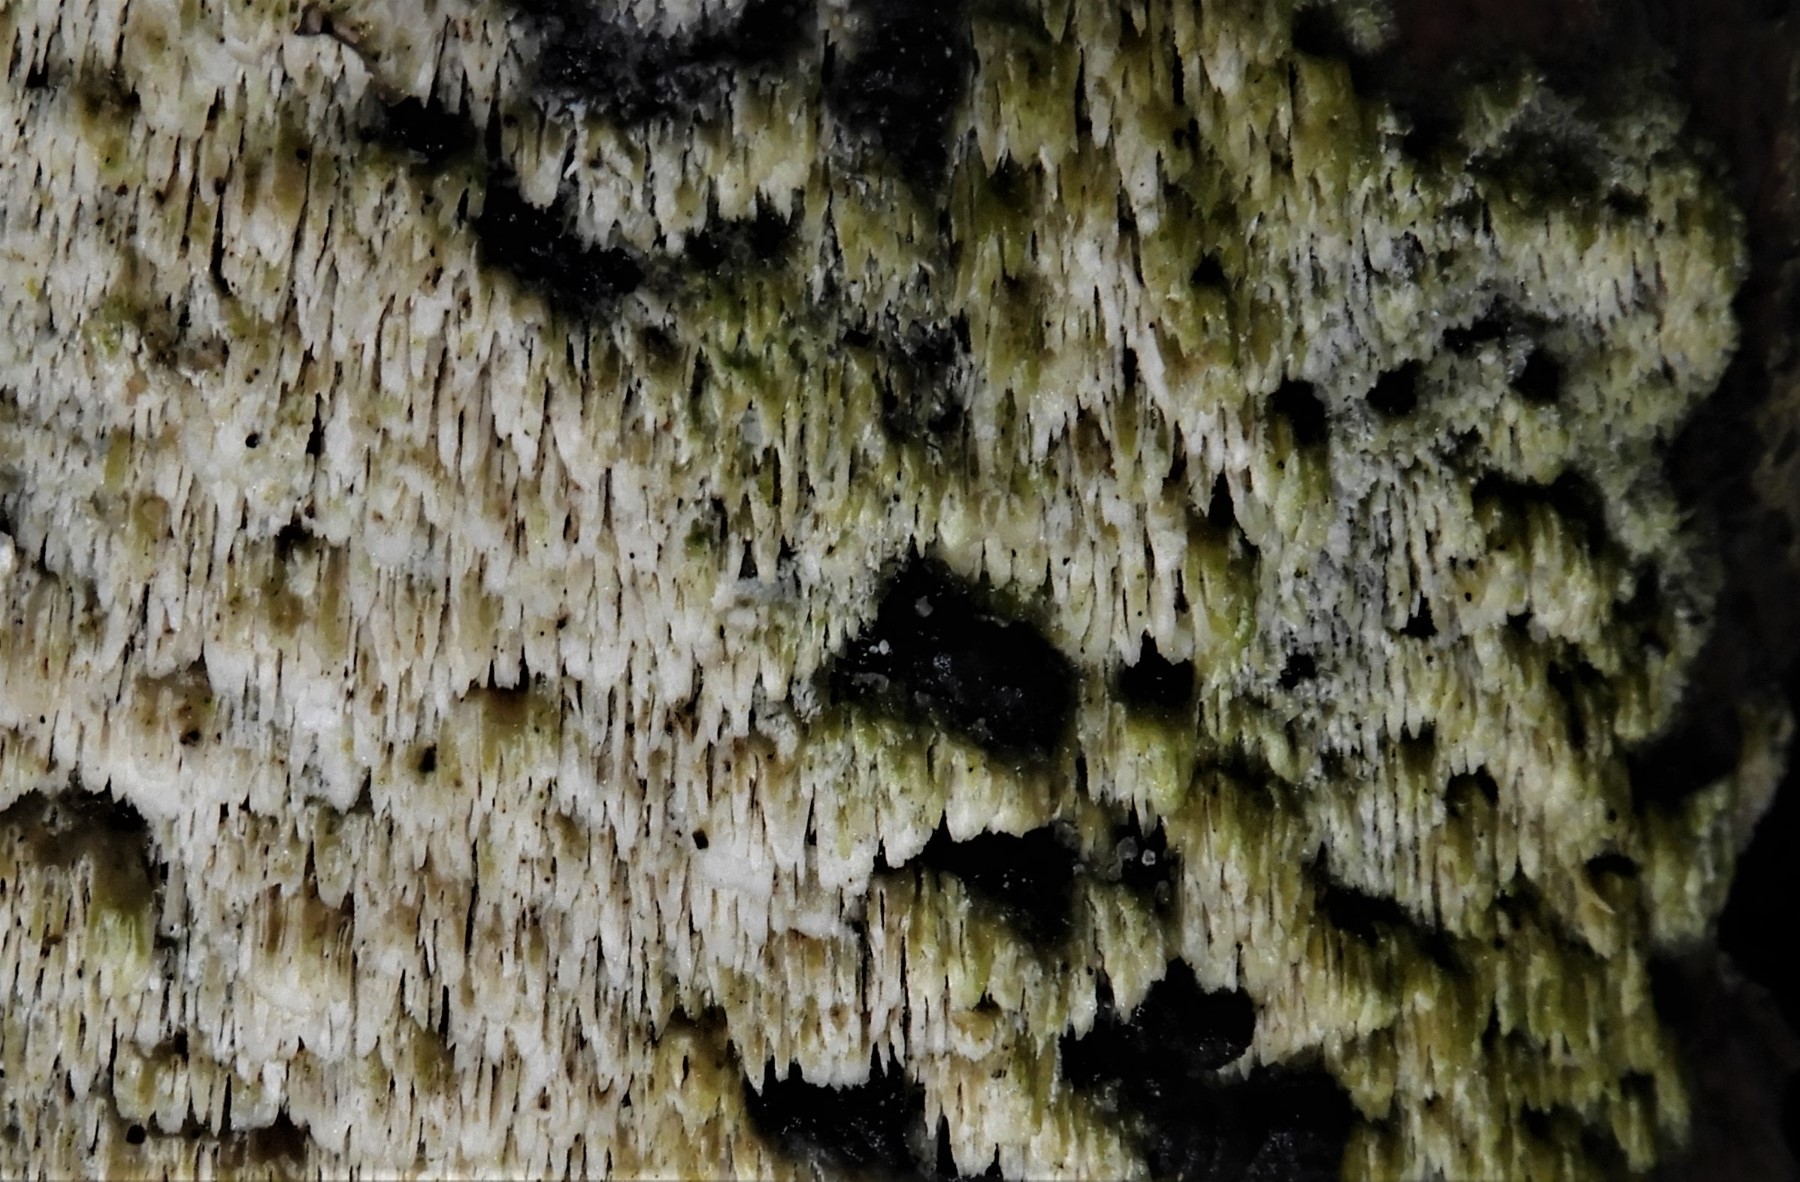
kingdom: Fungi
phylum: Basidiomycota
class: Agaricomycetes
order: Hymenochaetales
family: Schizoporaceae
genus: Schizopora
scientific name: Schizopora paradoxa
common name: hvid tandsvamp
